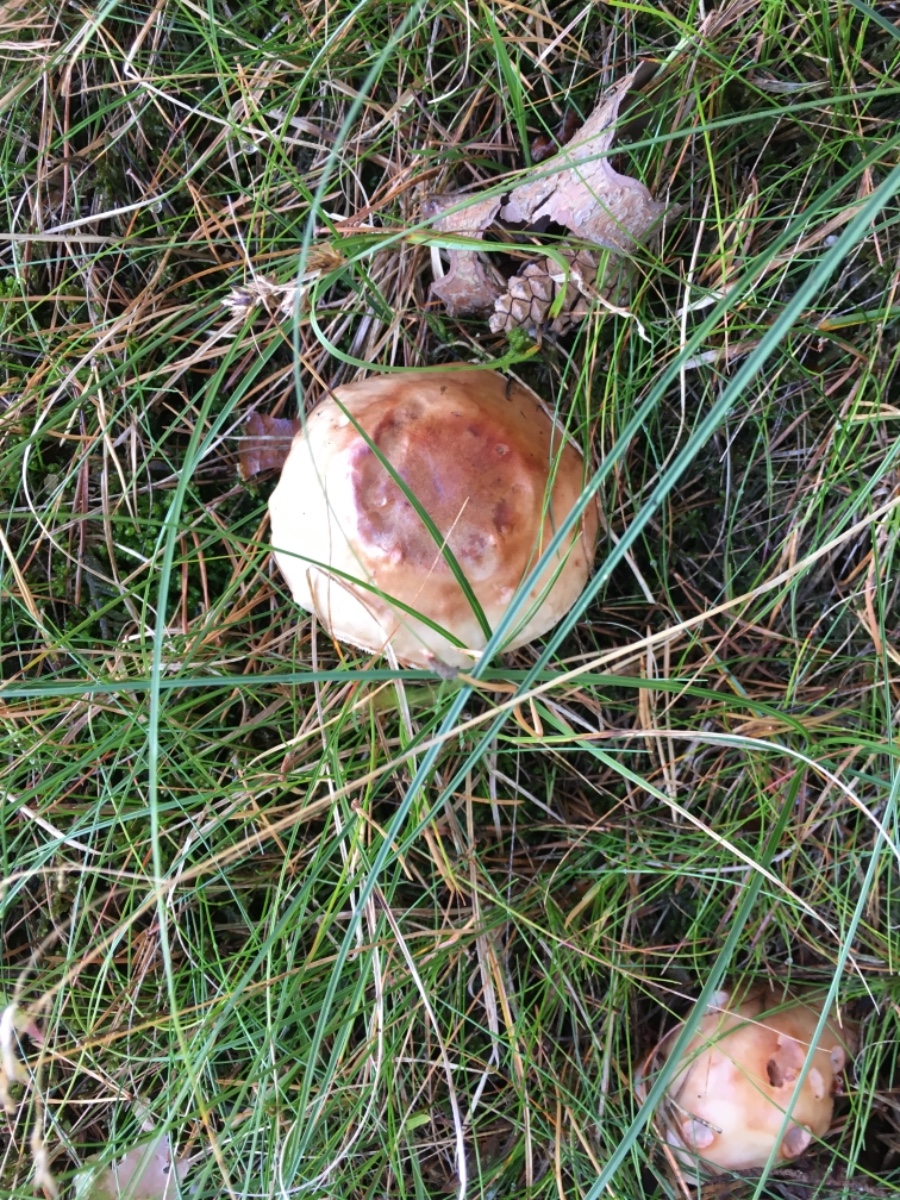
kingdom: Fungi
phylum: Basidiomycota
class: Agaricomycetes
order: Agaricales
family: Amanitaceae
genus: Amanita
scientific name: Amanita rubescens
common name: rødmende fluesvamp
